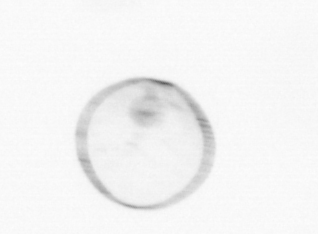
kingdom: Chromista
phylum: Myzozoa
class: Dinophyceae
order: Noctilucales
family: Noctilucaceae
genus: Noctiluca
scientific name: Noctiluca scintillans
